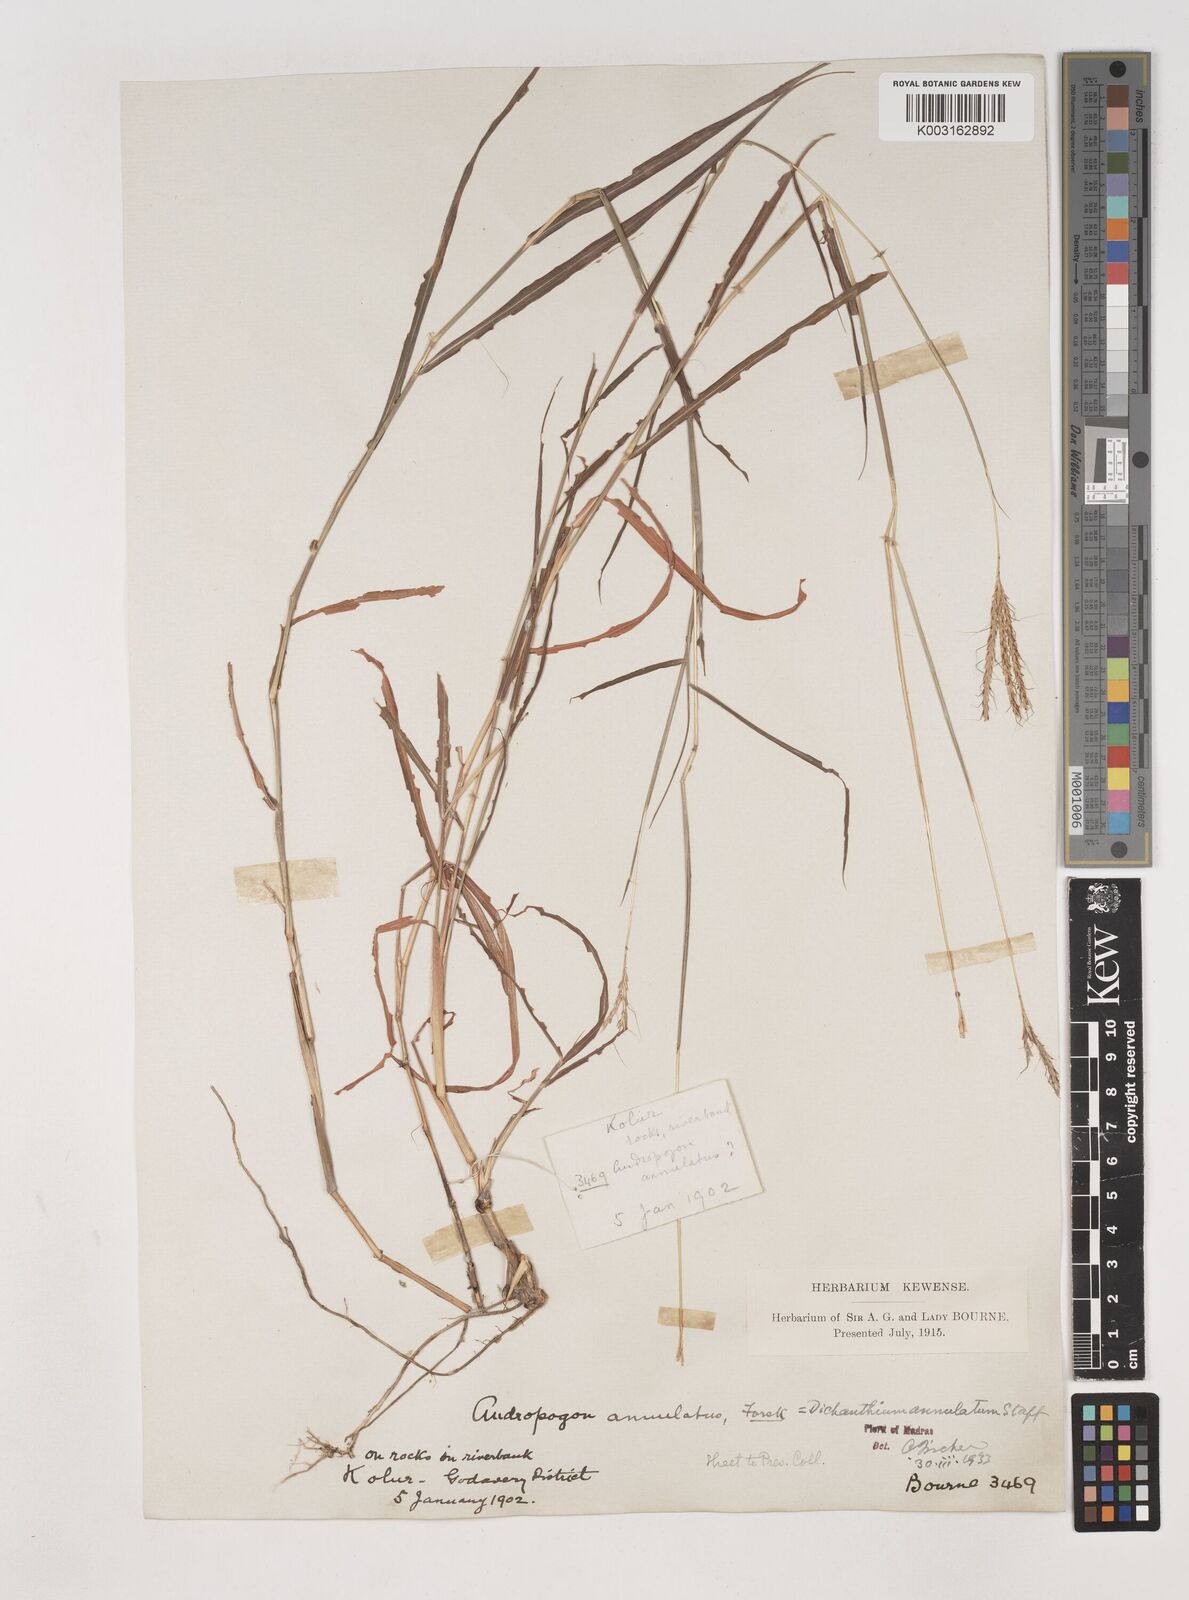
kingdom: Plantae
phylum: Tracheophyta
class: Liliopsida
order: Poales
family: Poaceae
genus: Dichanthium
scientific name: Dichanthium annulatum
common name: Kleberg's bluestem
